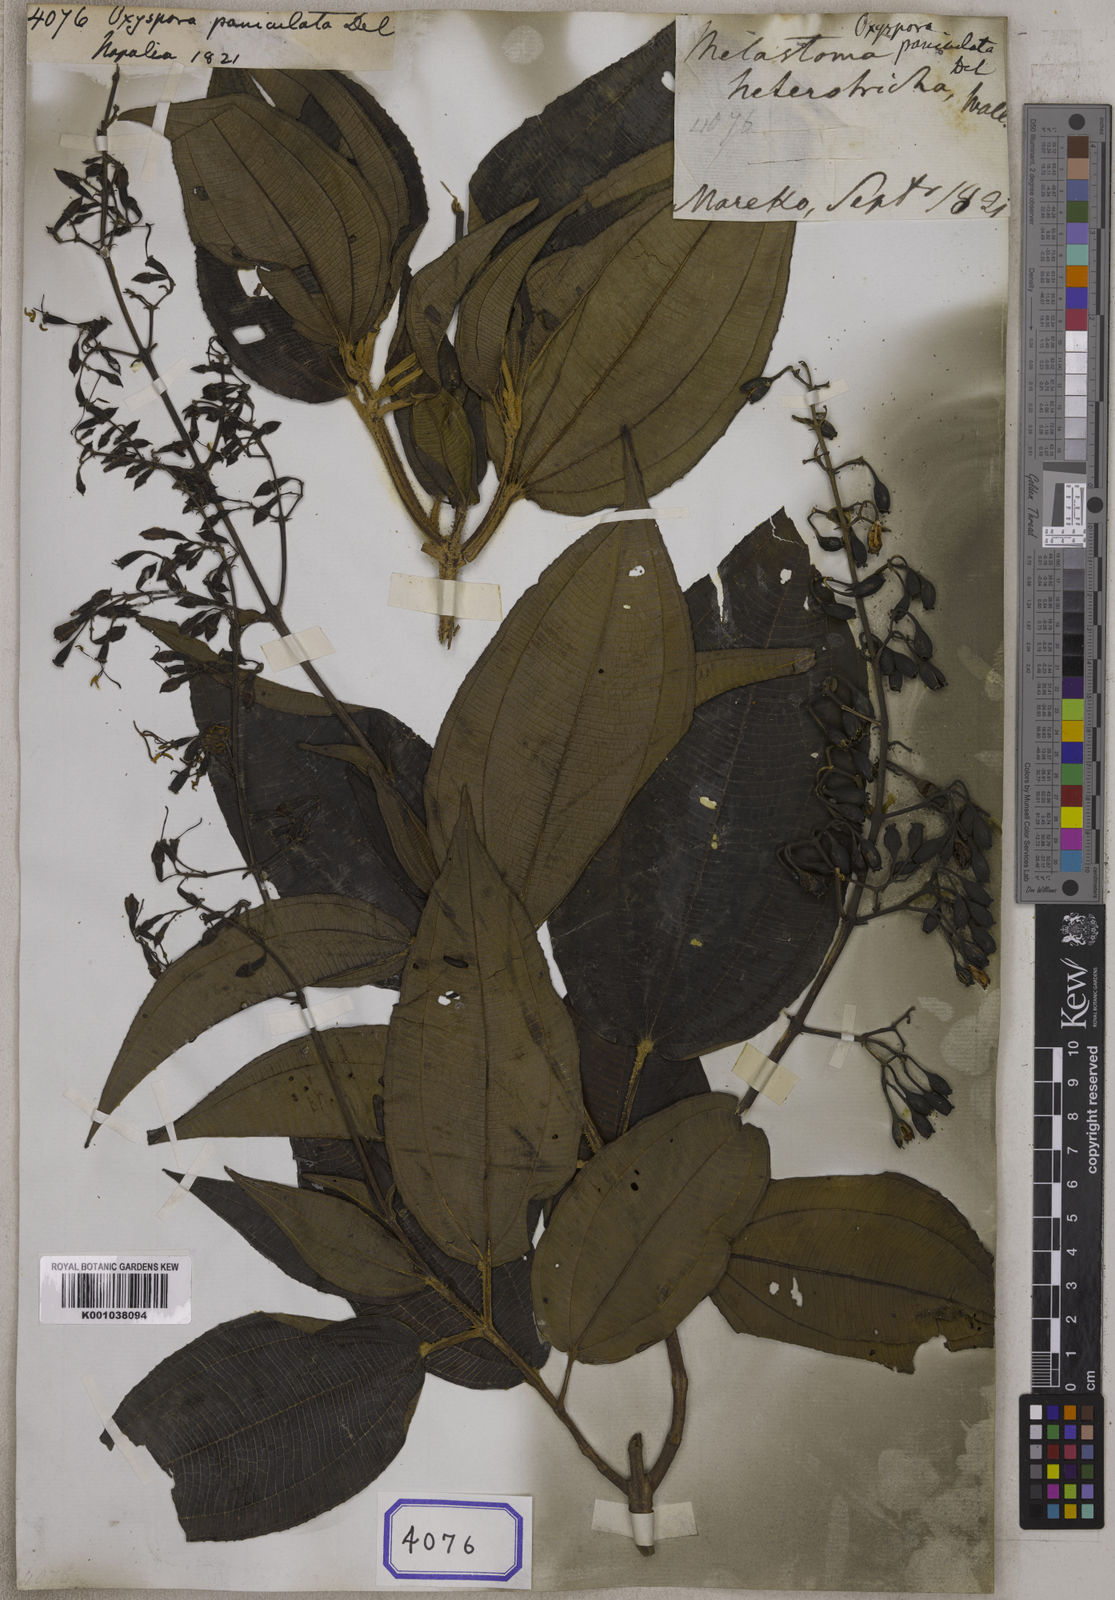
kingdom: Plantae
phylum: Tracheophyta
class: Magnoliopsida
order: Myrtales
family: Melastomataceae
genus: Oxyspora
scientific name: Oxyspora paniculata
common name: Bristletips
